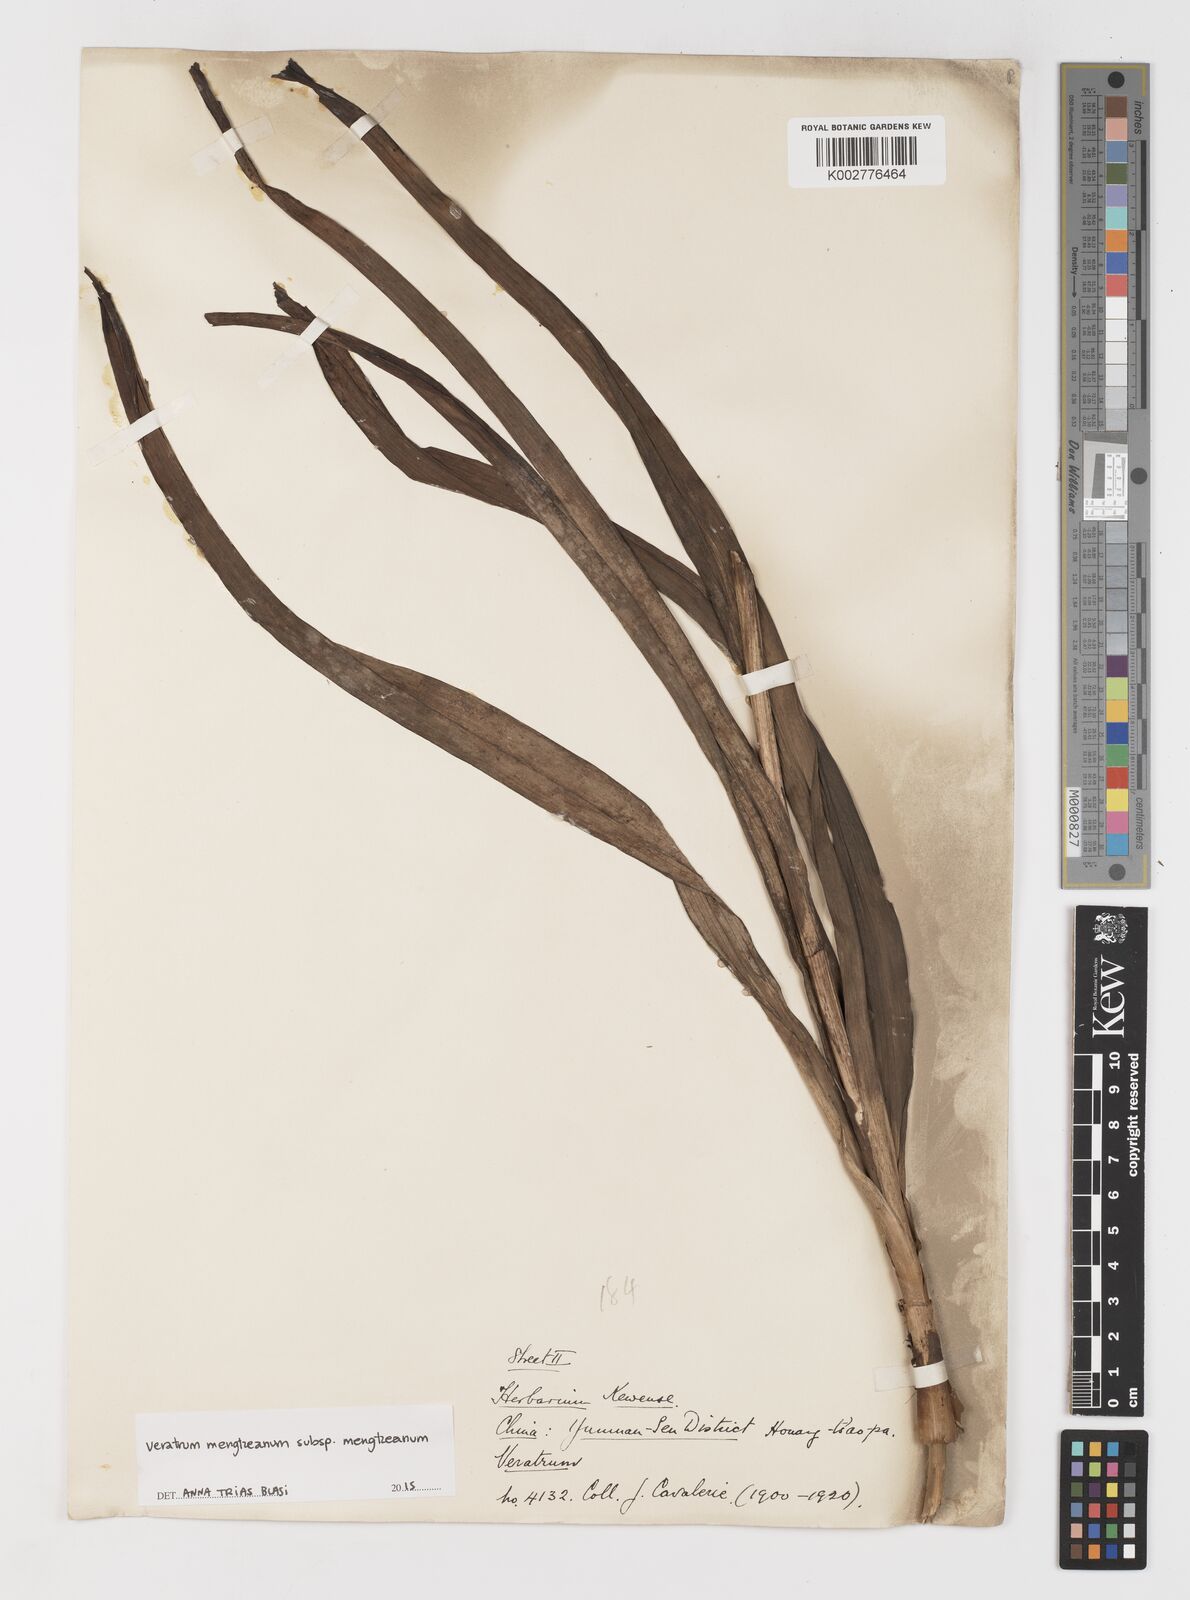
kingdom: Plantae
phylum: Tracheophyta
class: Liliopsida
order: Liliales
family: Melanthiaceae
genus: Veratrum
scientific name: Veratrum mengtzeanum
